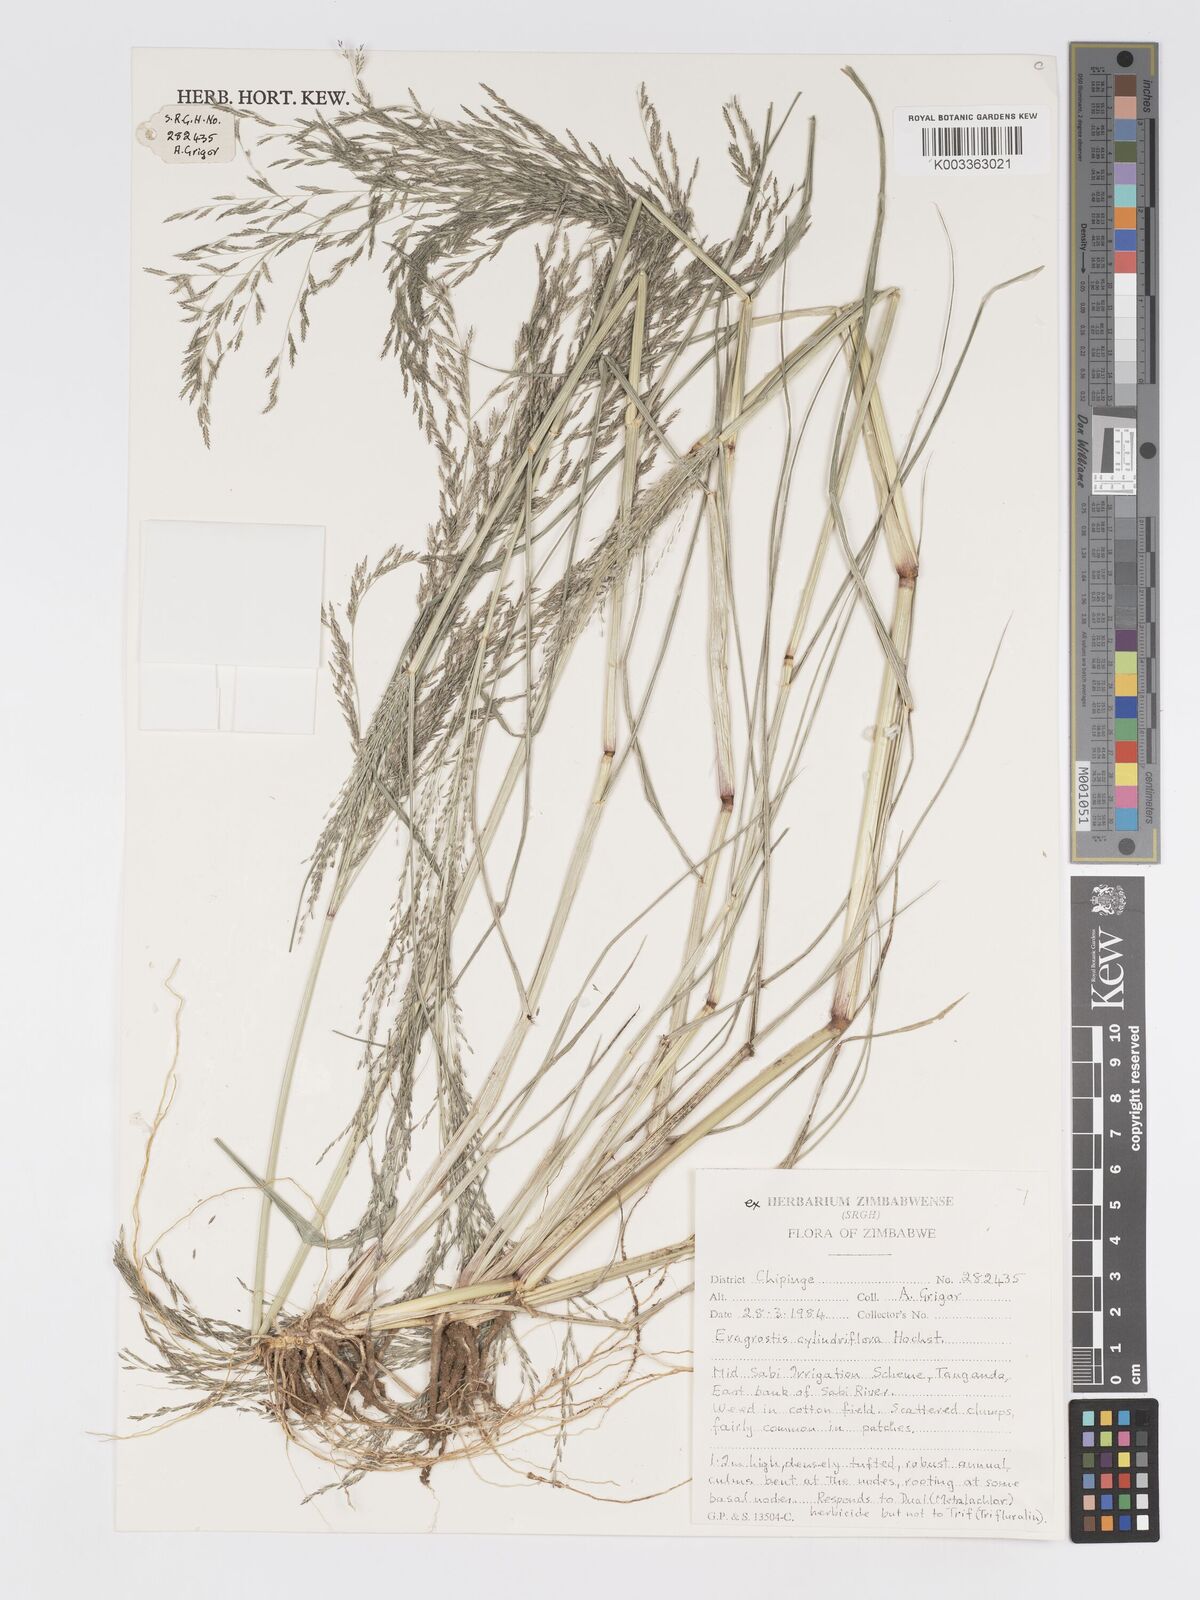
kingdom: Plantae
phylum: Tracheophyta
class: Liliopsida
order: Poales
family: Poaceae
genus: Eragrostis
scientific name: Eragrostis cylindriflora
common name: Cylinderflower lovegrass
